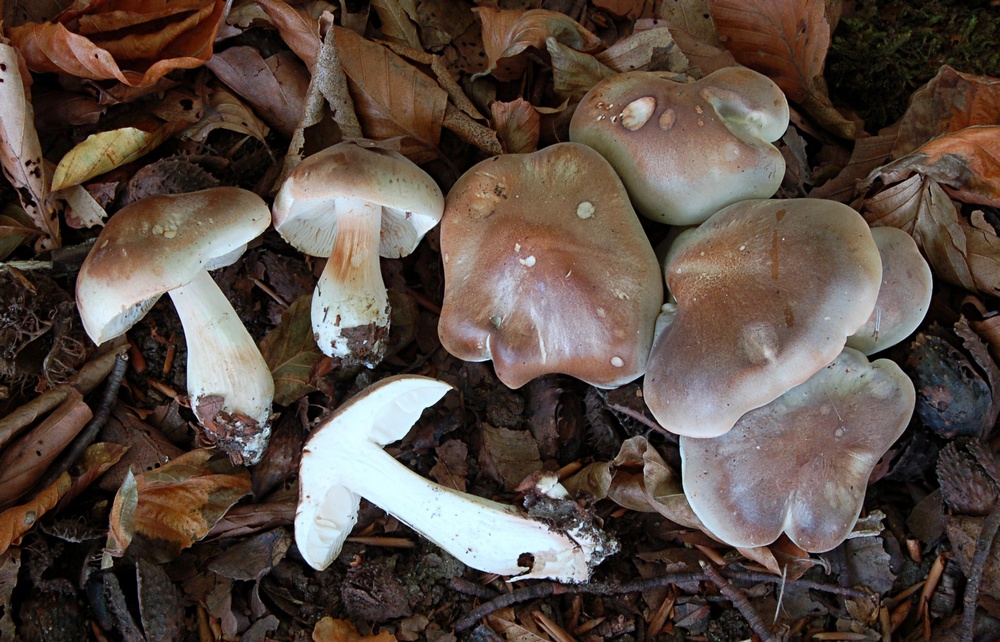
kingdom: Fungi
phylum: Basidiomycota
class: Agaricomycetes
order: Agaricales
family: Tricholomataceae
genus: Tricholoma
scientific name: Tricholoma saponaceum
